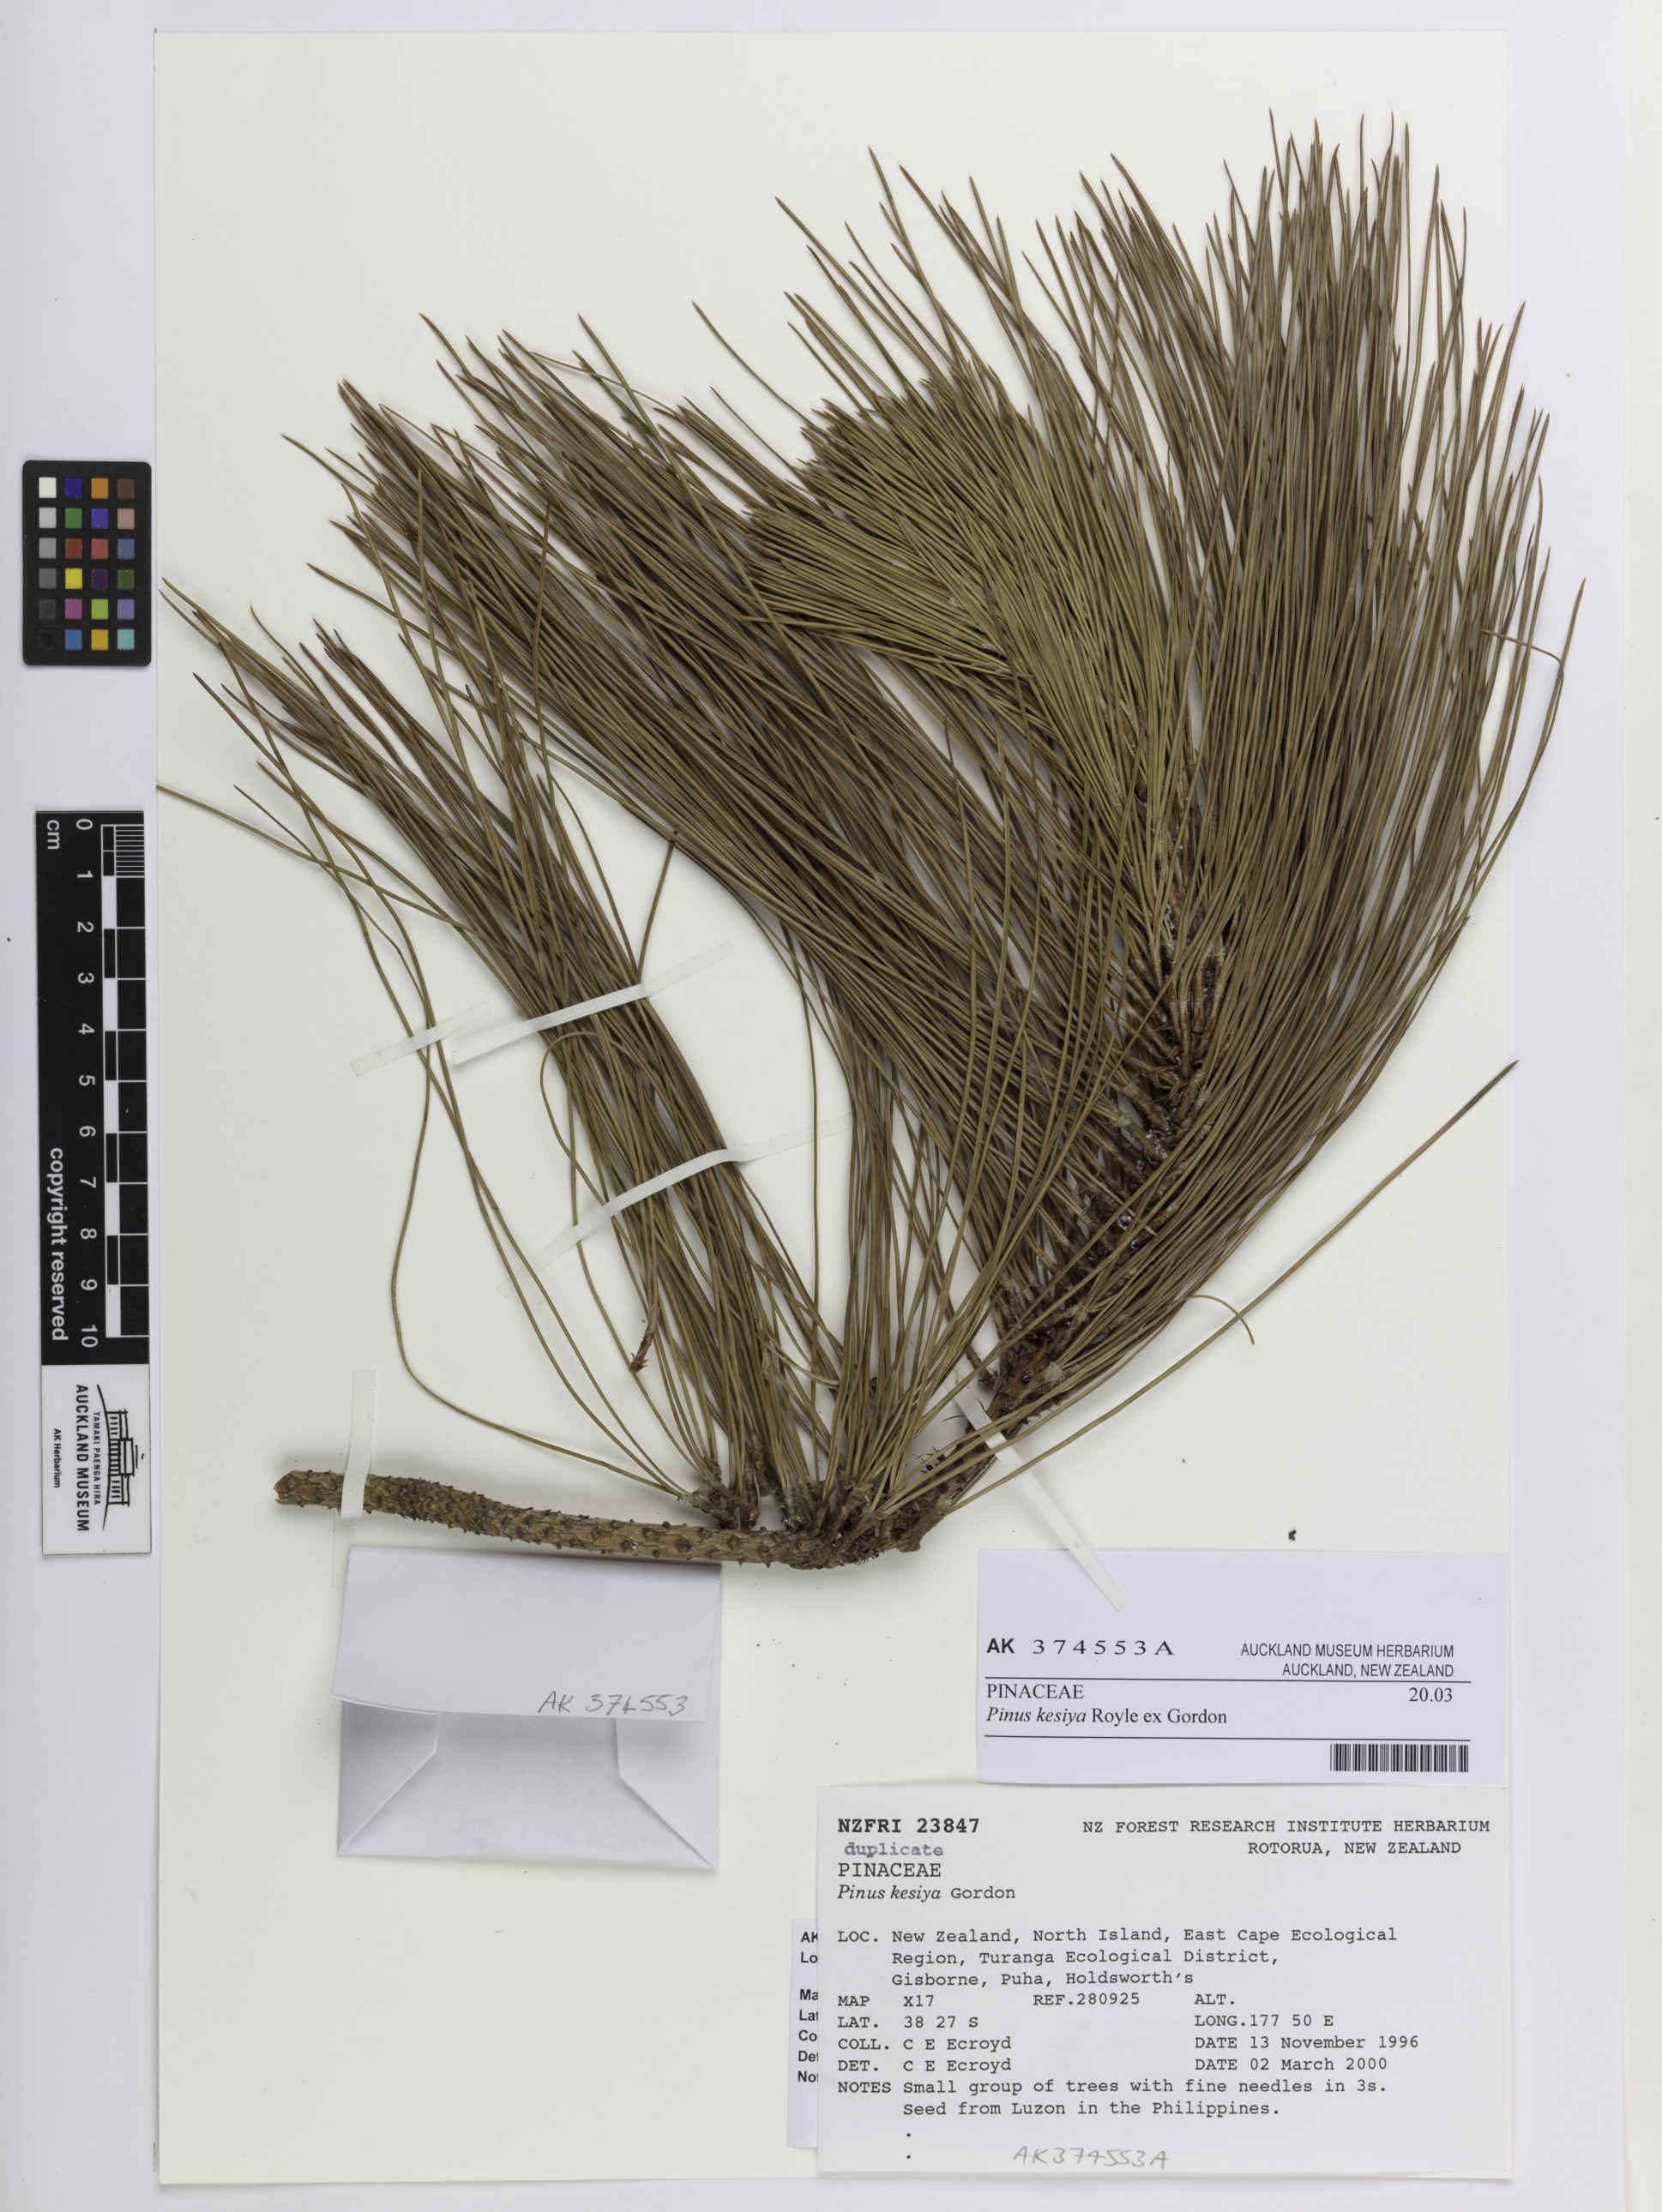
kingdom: Plantae
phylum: Tracheophyta
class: Pinopsida
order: Pinales
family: Pinaceae
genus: Pinus
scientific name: Pinus kesiya
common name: Benguet pine
